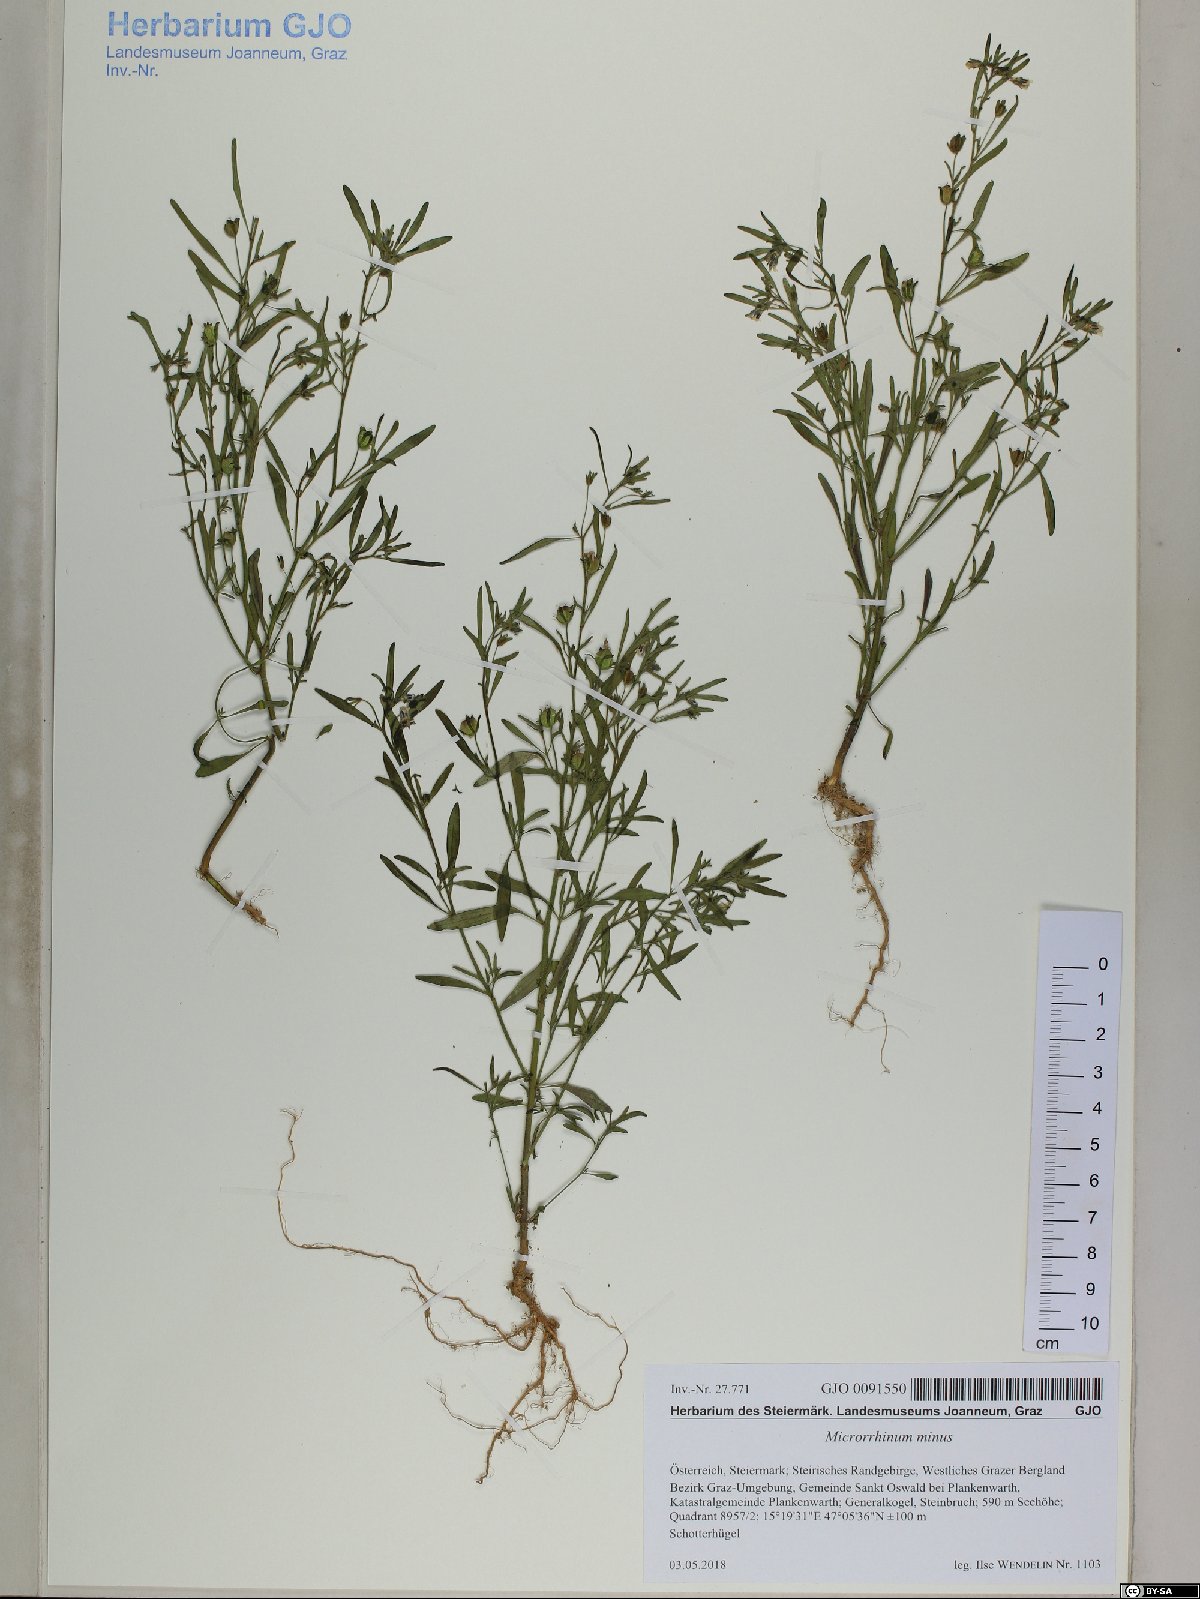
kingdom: Plantae
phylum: Tracheophyta
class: Magnoliopsida
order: Lamiales
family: Plantaginaceae
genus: Chaenorhinum
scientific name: Chaenorhinum minus
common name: Dwarf snapdragon
